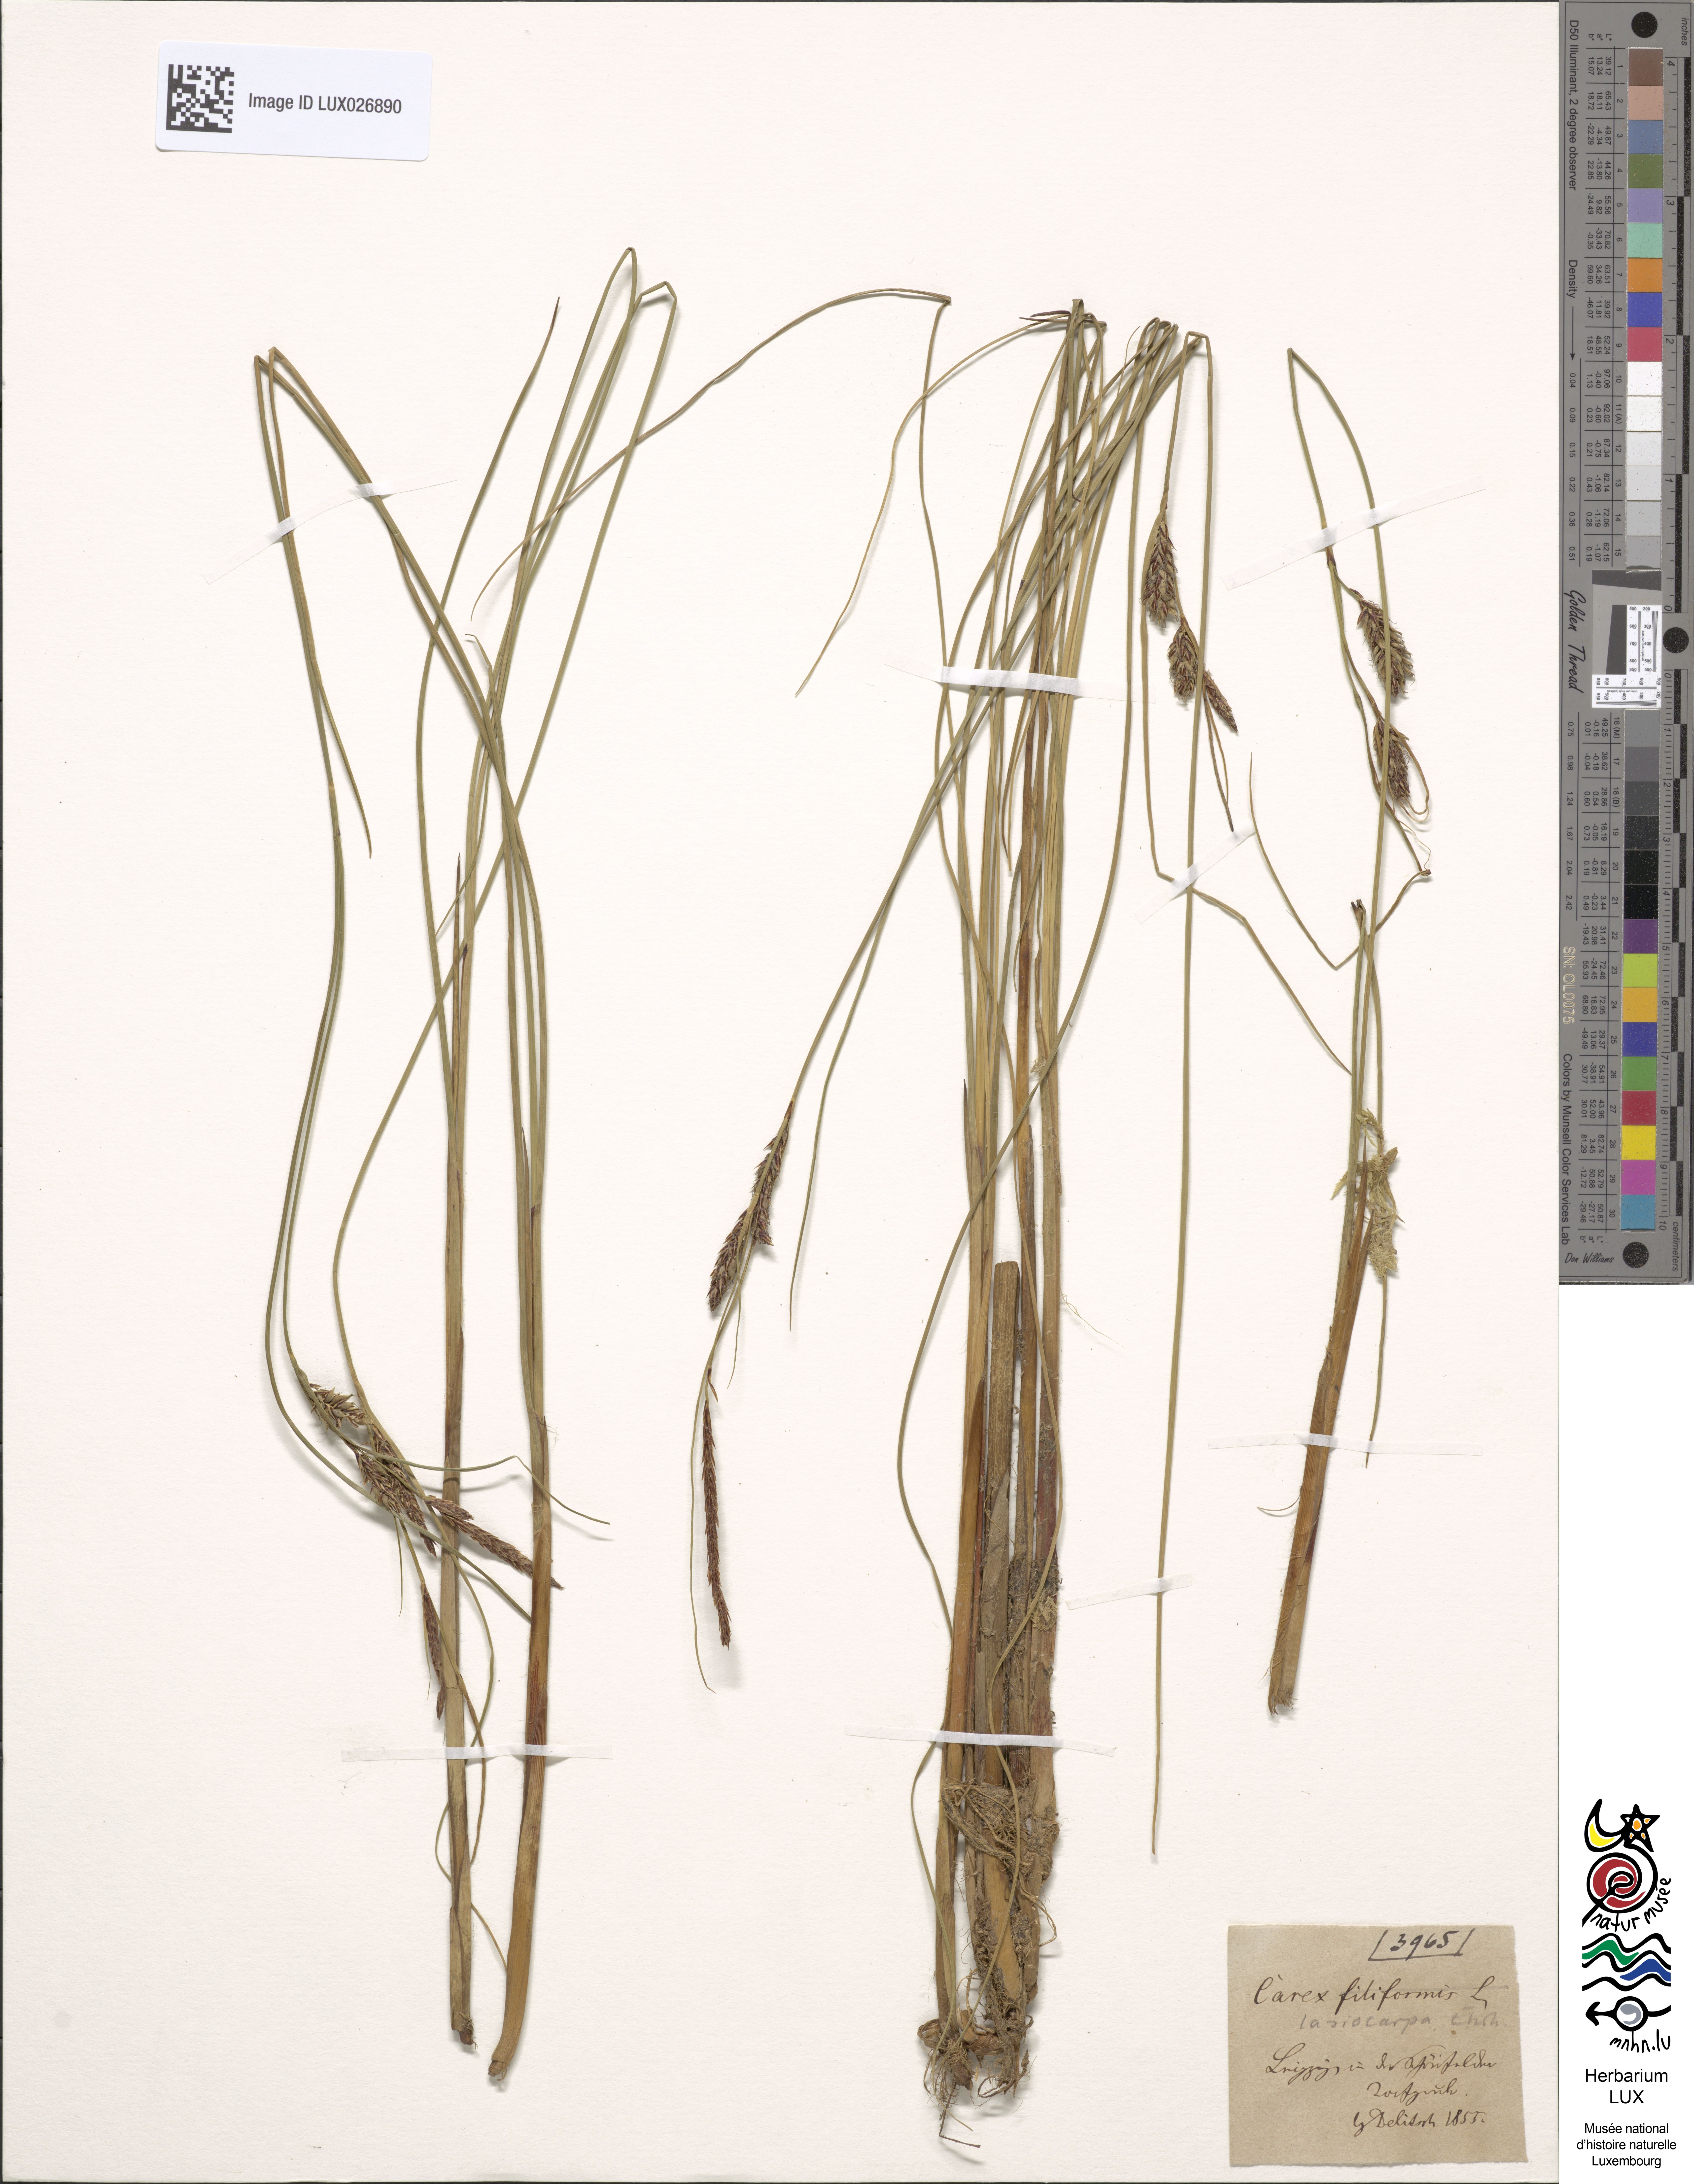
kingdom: Plantae
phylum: Tracheophyta
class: Liliopsida
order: Poales
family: Cyperaceae
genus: Carex
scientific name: Carex lasiocarpa
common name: Slender sedge
